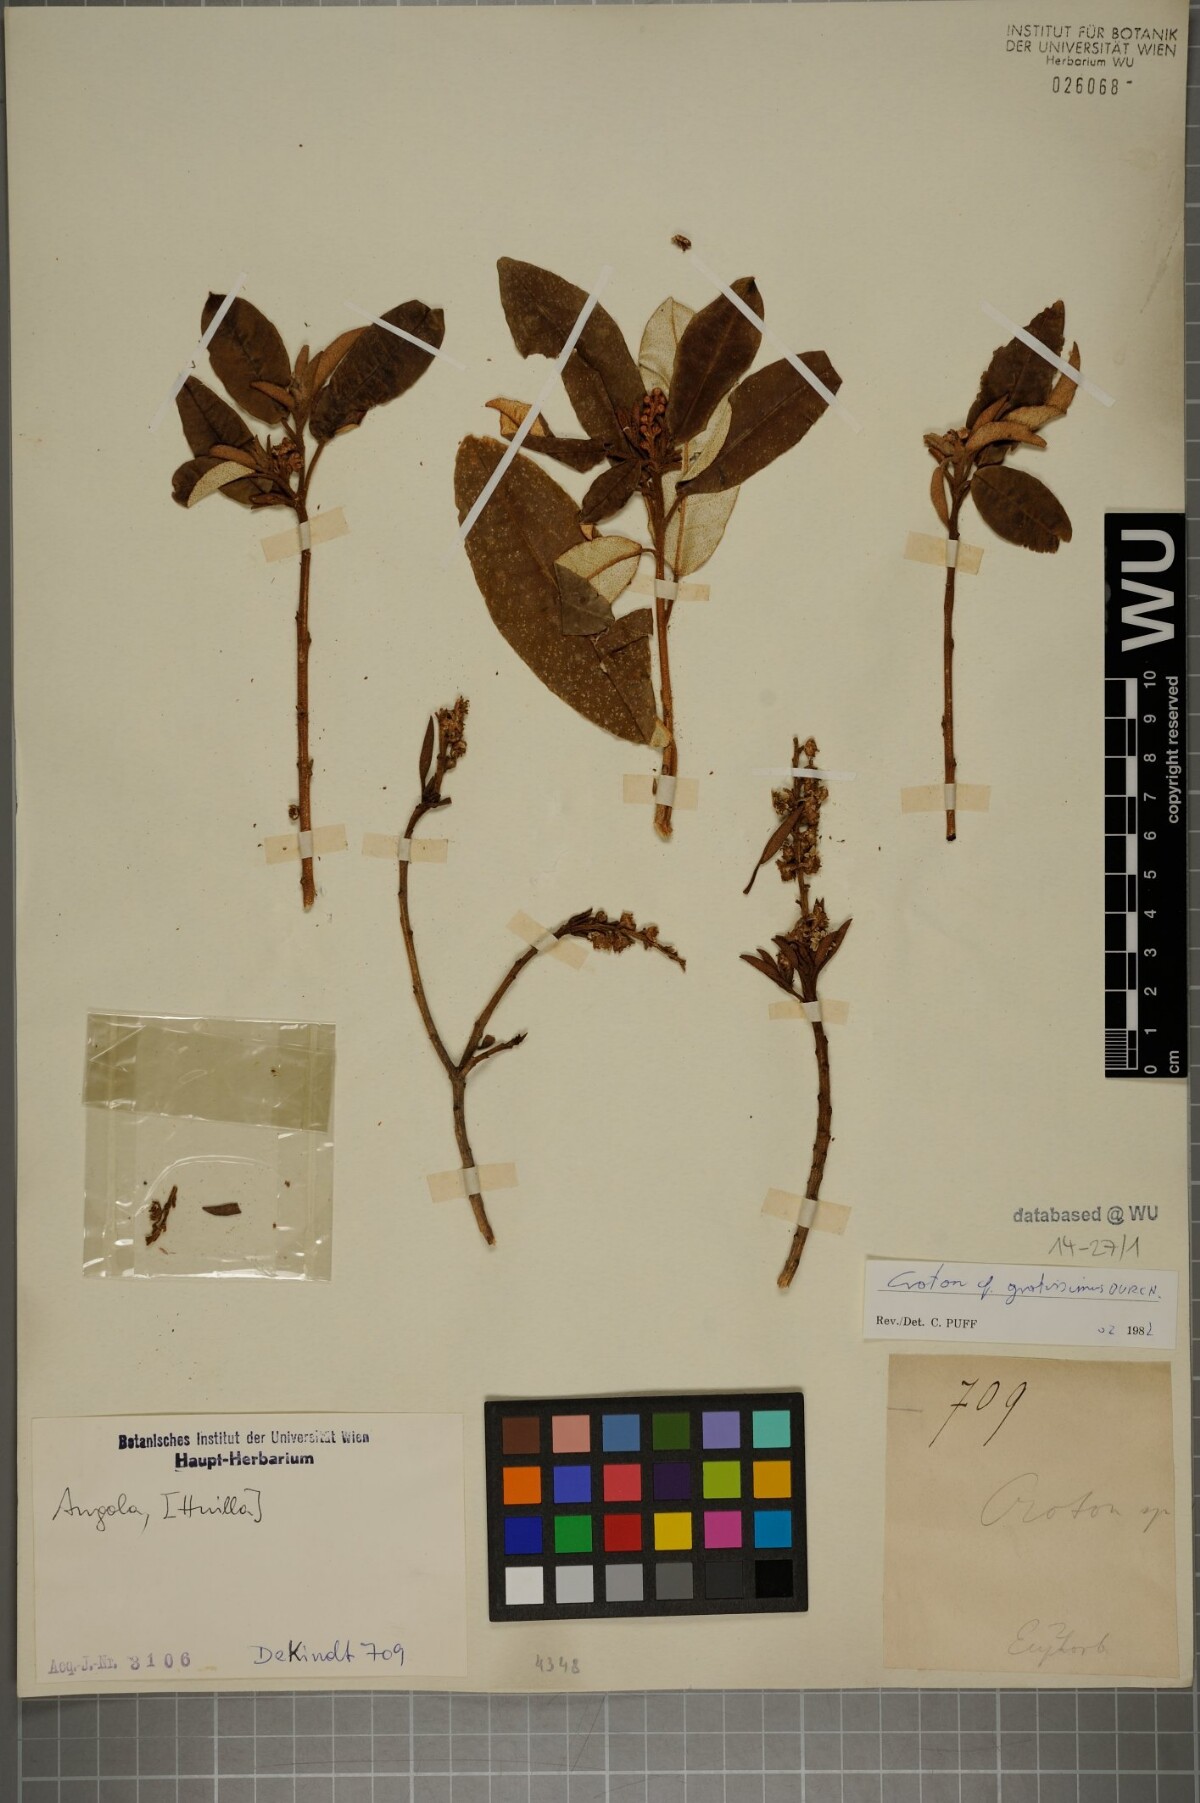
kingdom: Plantae
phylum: Tracheophyta
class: Magnoliopsida
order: Malpighiales
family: Euphorbiaceae
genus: Croton
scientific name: Croton gratissimus
